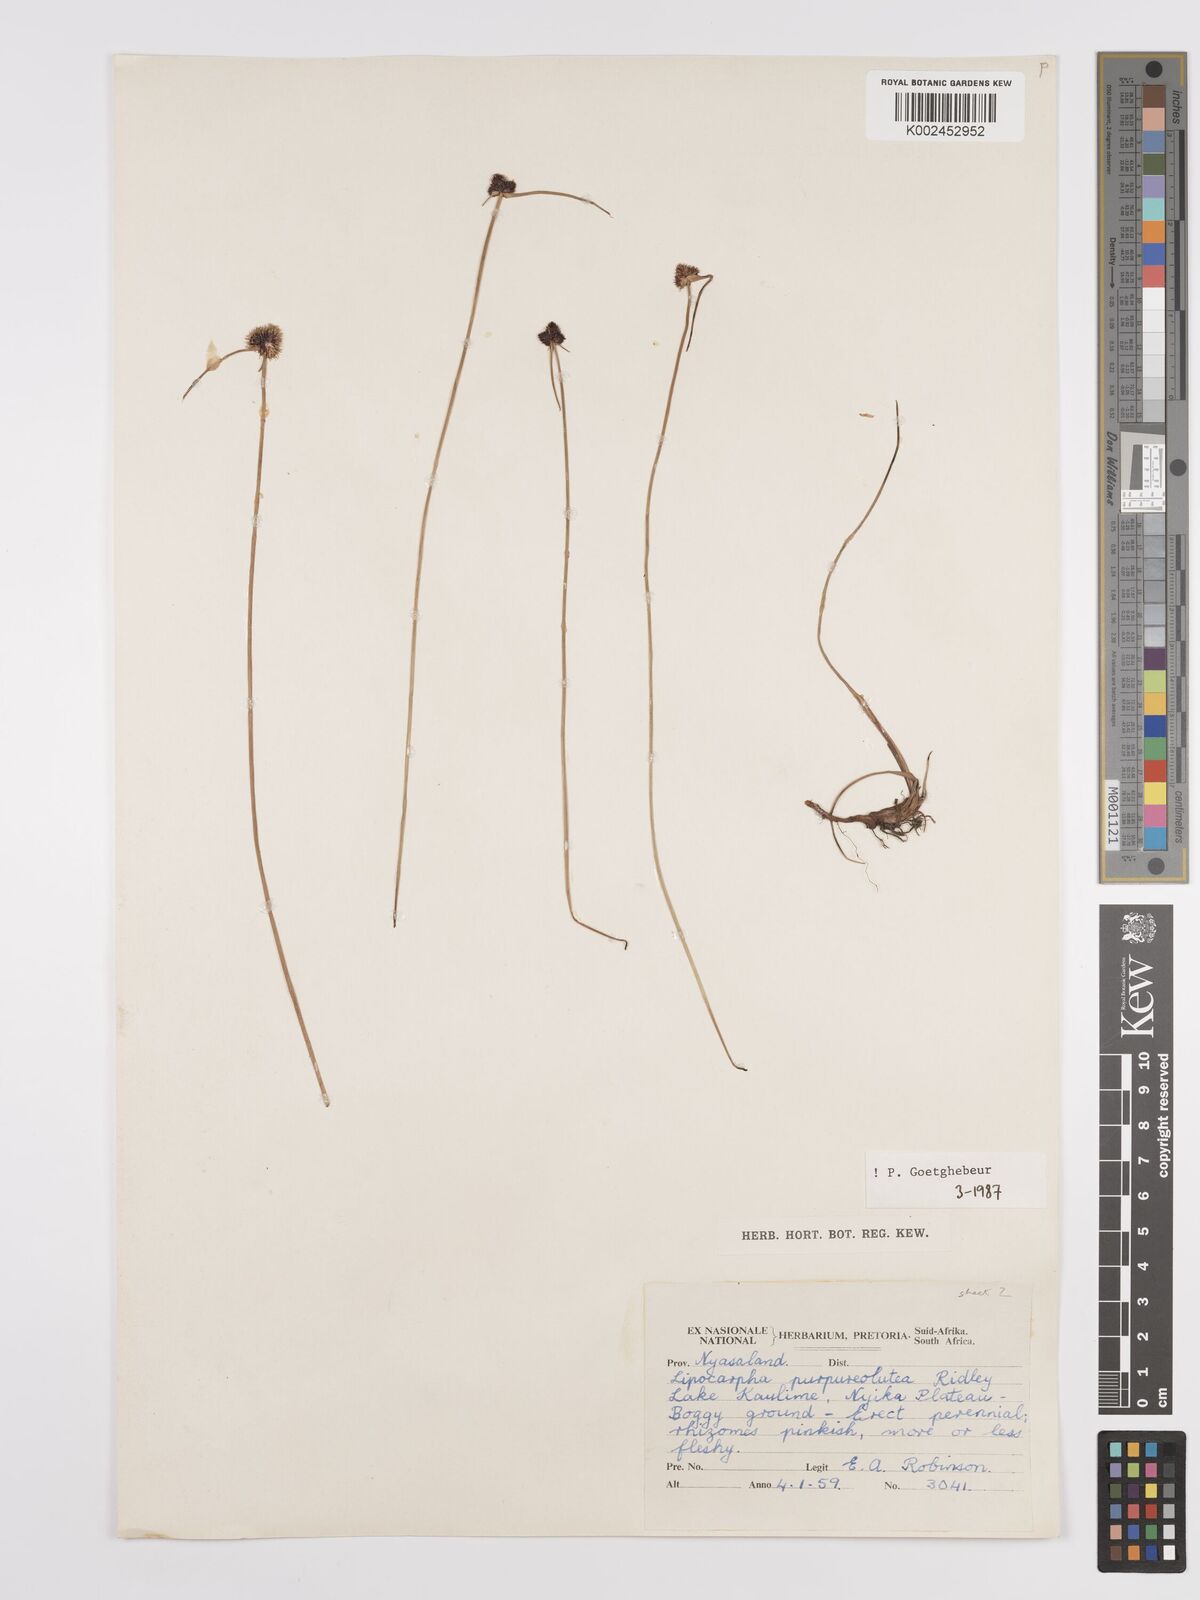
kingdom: Plantae
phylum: Tracheophyta
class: Liliopsida
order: Poales
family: Cyperaceae
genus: Cyperus
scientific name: Cyperus albiceps
